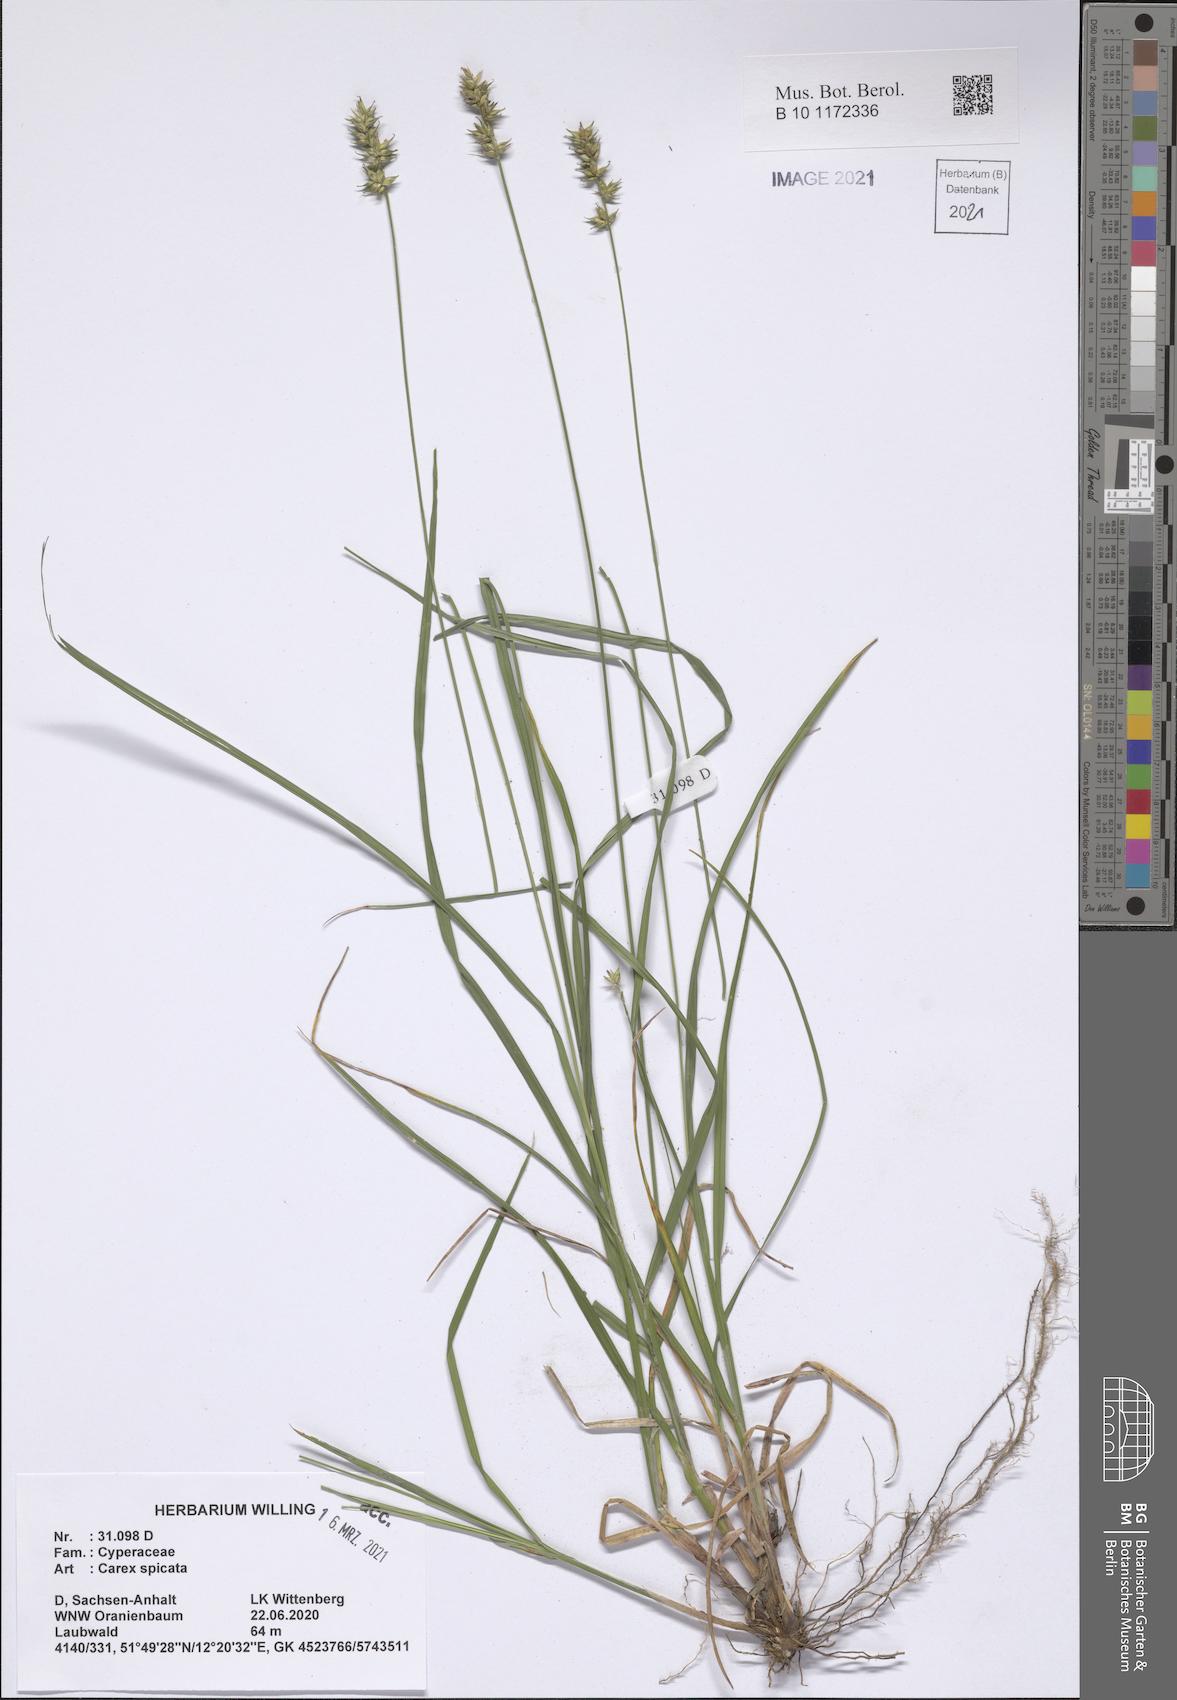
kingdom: Plantae
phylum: Tracheophyta
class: Liliopsida
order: Poales
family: Cyperaceae
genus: Carex
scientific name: Carex spicata
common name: Spiked sedge
